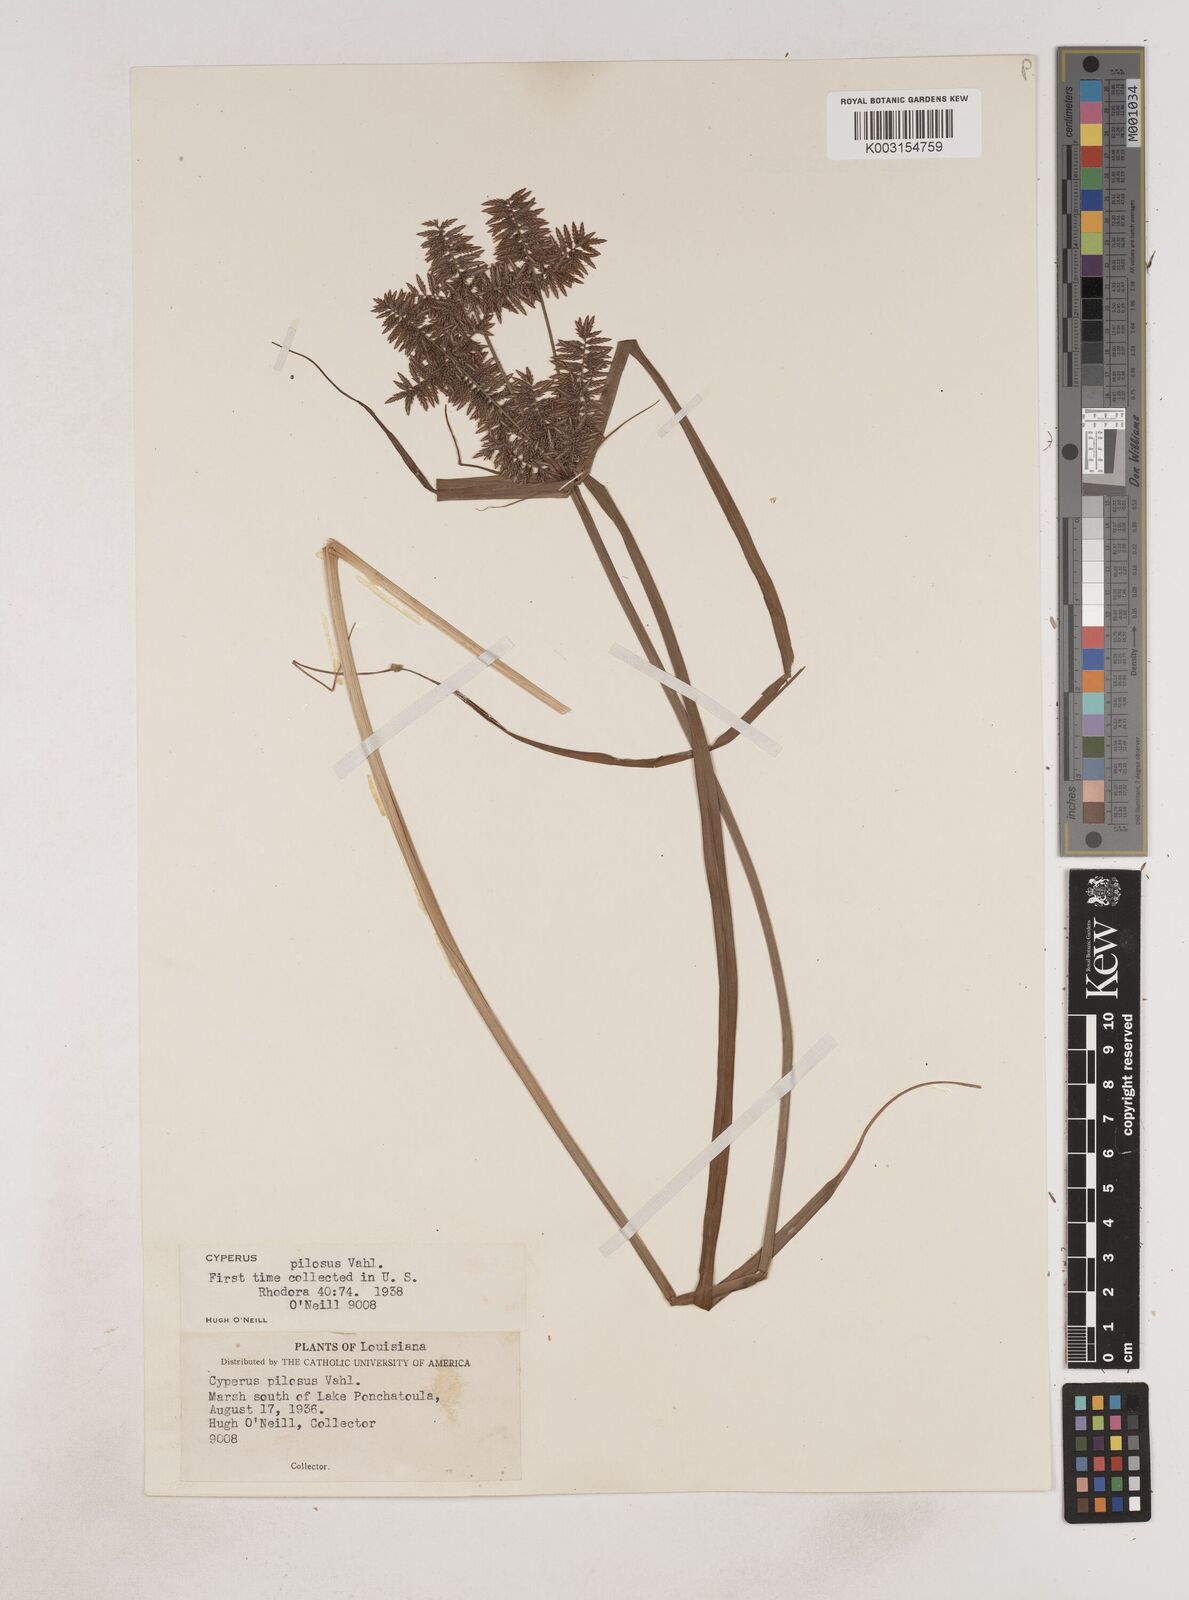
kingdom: Plantae
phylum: Tracheophyta
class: Liliopsida
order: Poales
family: Cyperaceae
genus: Cyperus
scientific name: Cyperus pilosus
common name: Fuzzy flatsedge
